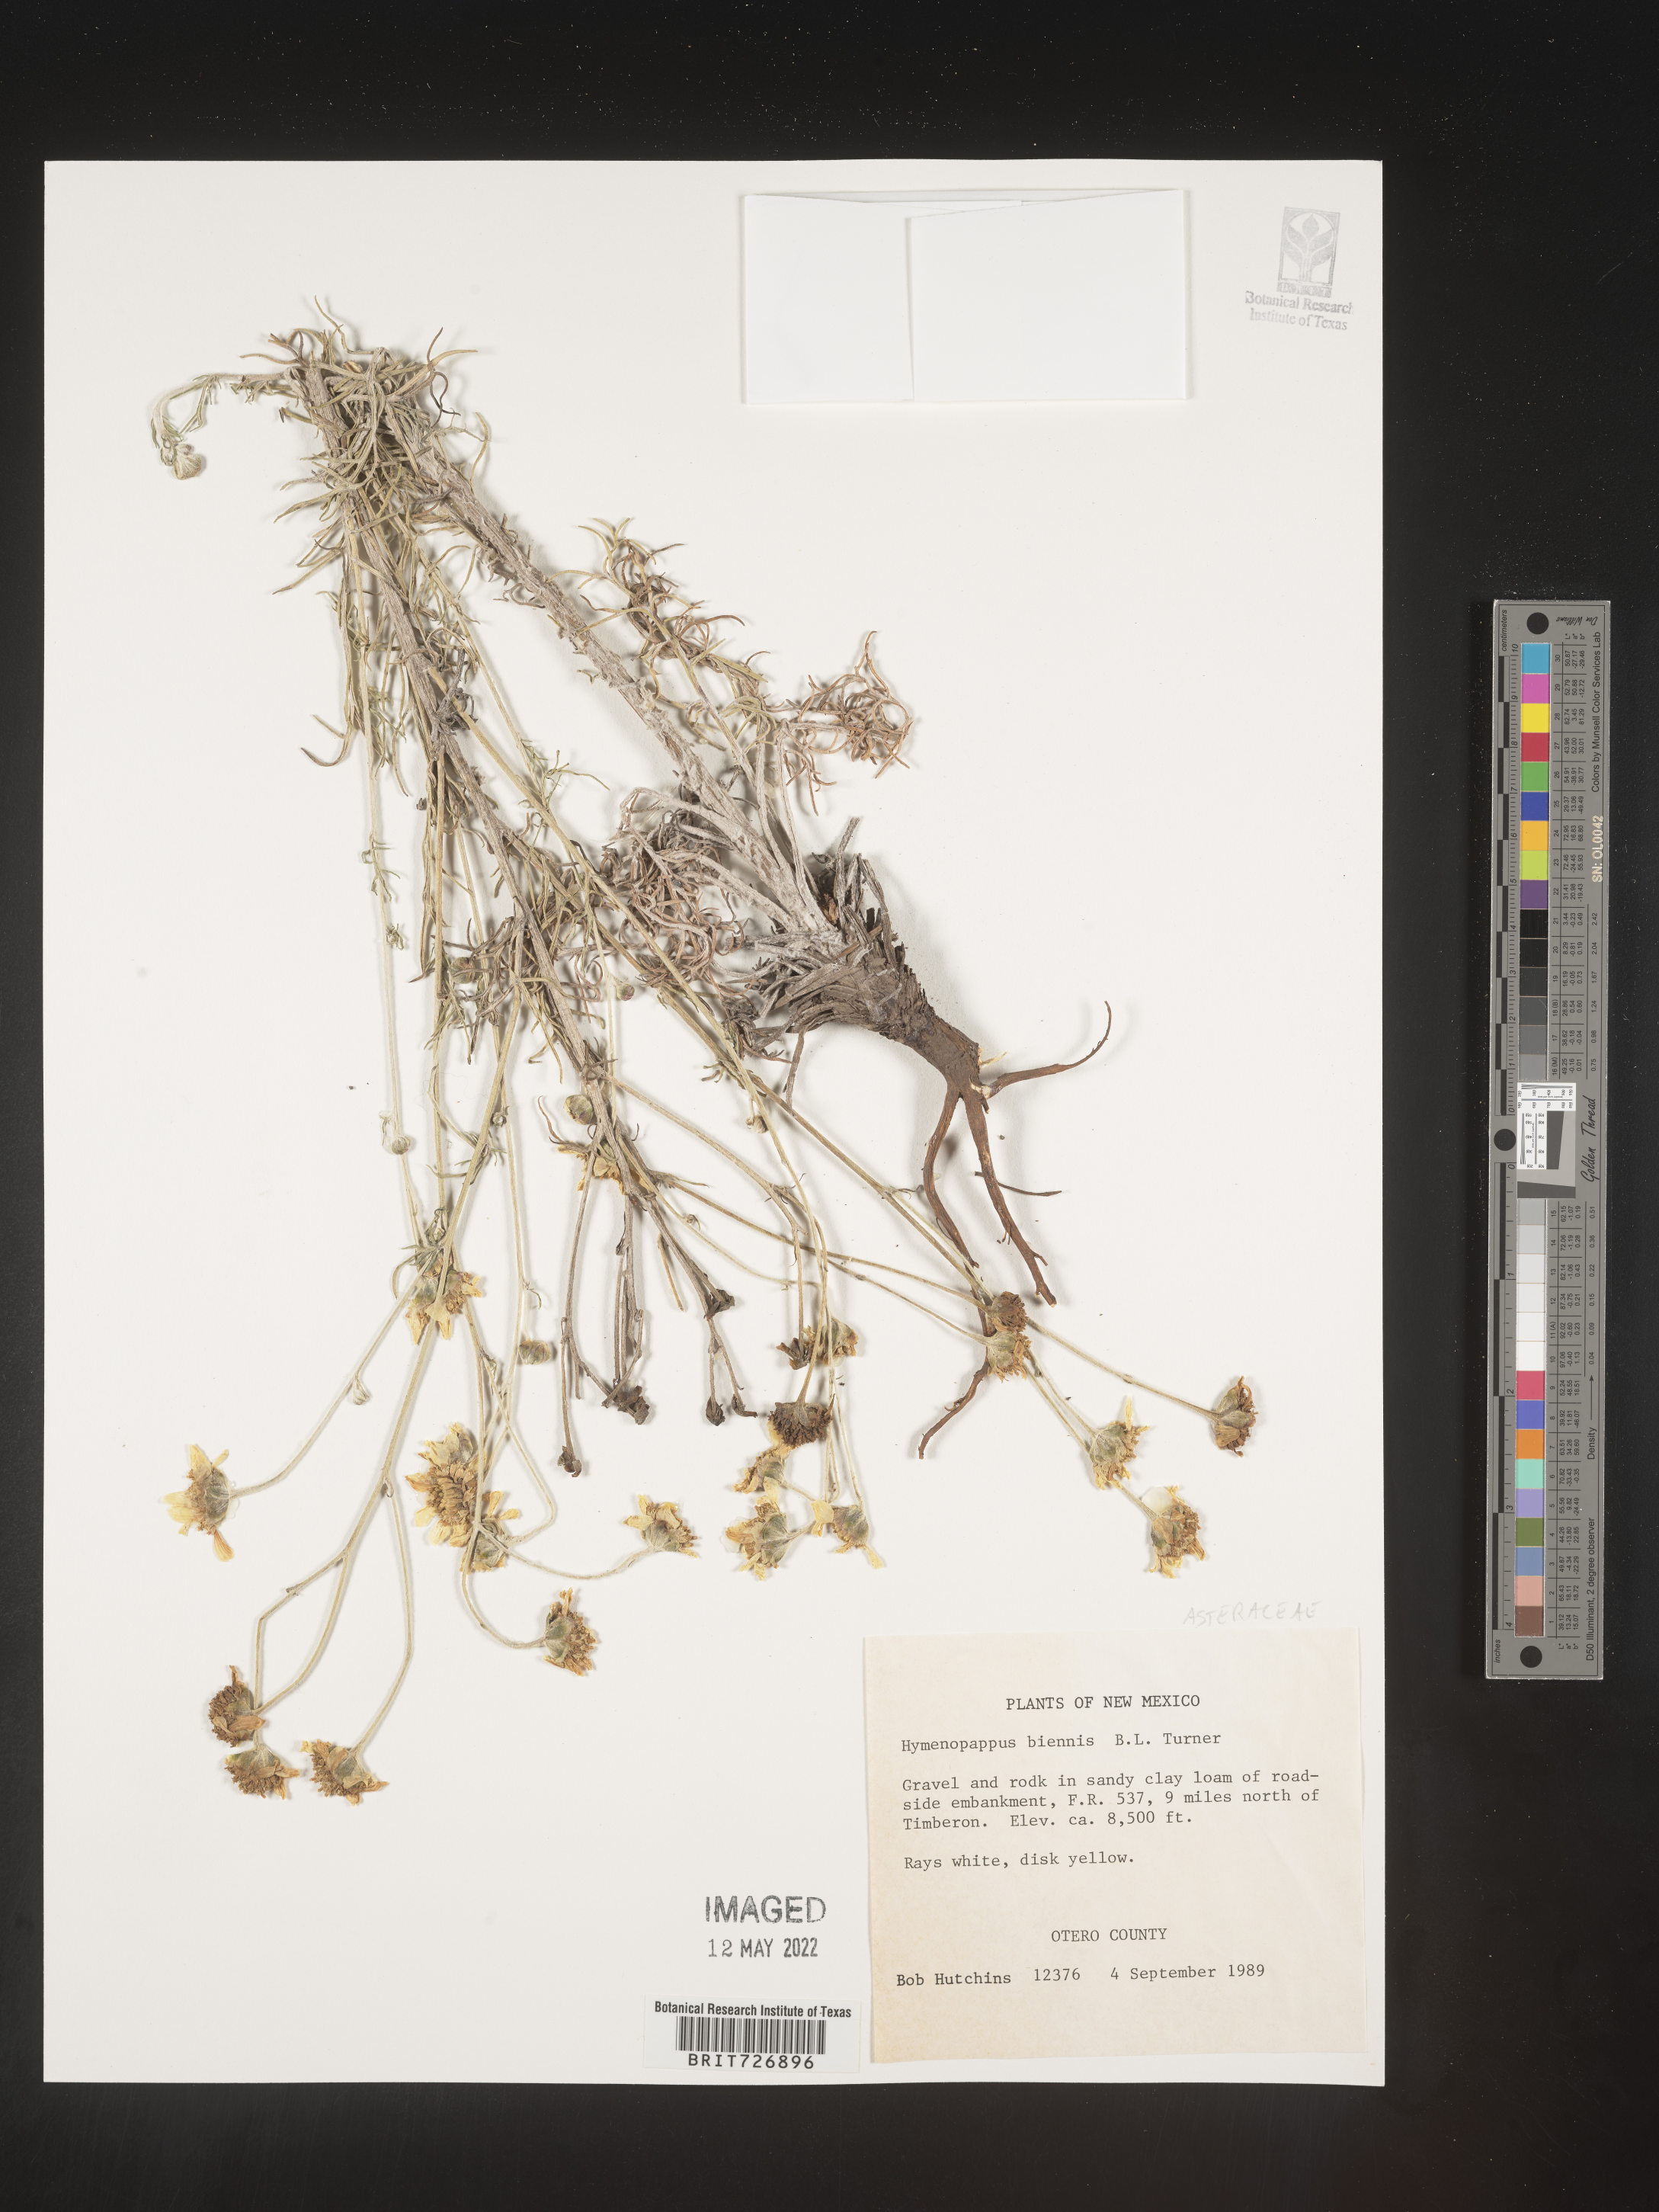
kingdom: Plantae
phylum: Tracheophyta
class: Magnoliopsida
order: Asterales
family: Asteraceae
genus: Hymenopappus
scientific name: Hymenopappus biennis
